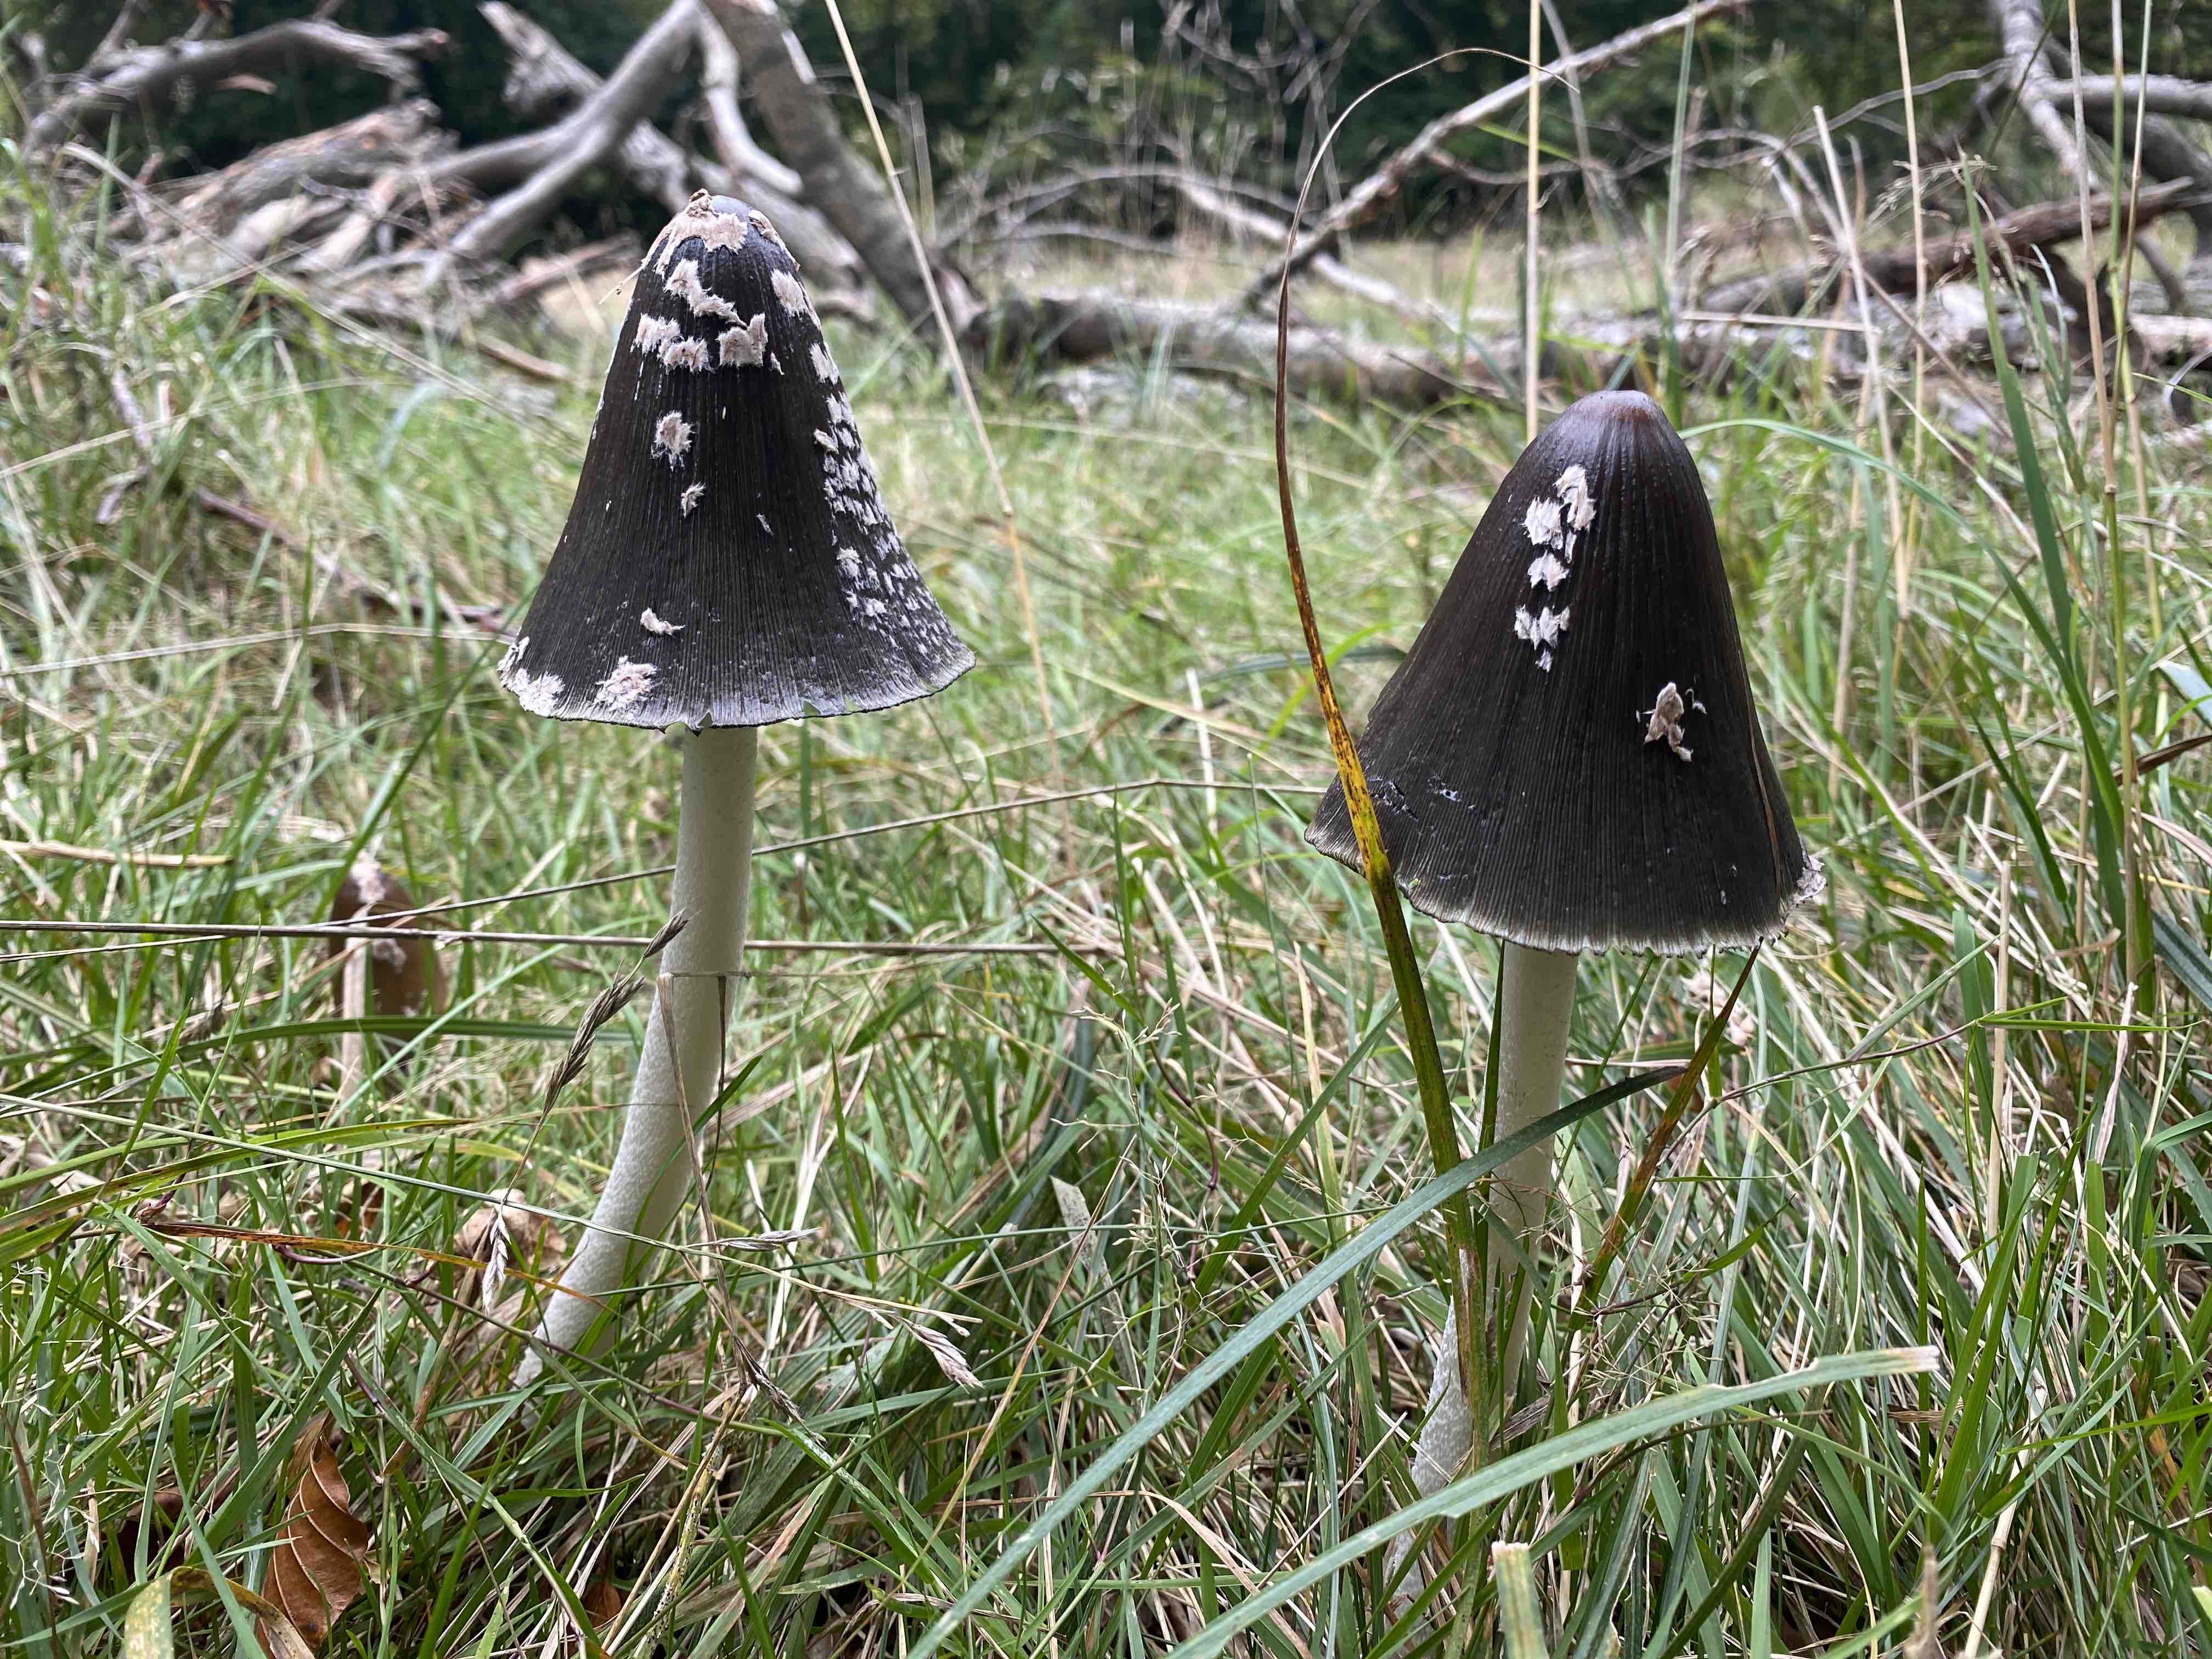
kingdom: Fungi
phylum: Basidiomycota
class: Agaricomycetes
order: Agaricales
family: Psathyrellaceae
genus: Coprinopsis
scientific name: Coprinopsis picacea
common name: skade-blækhat
